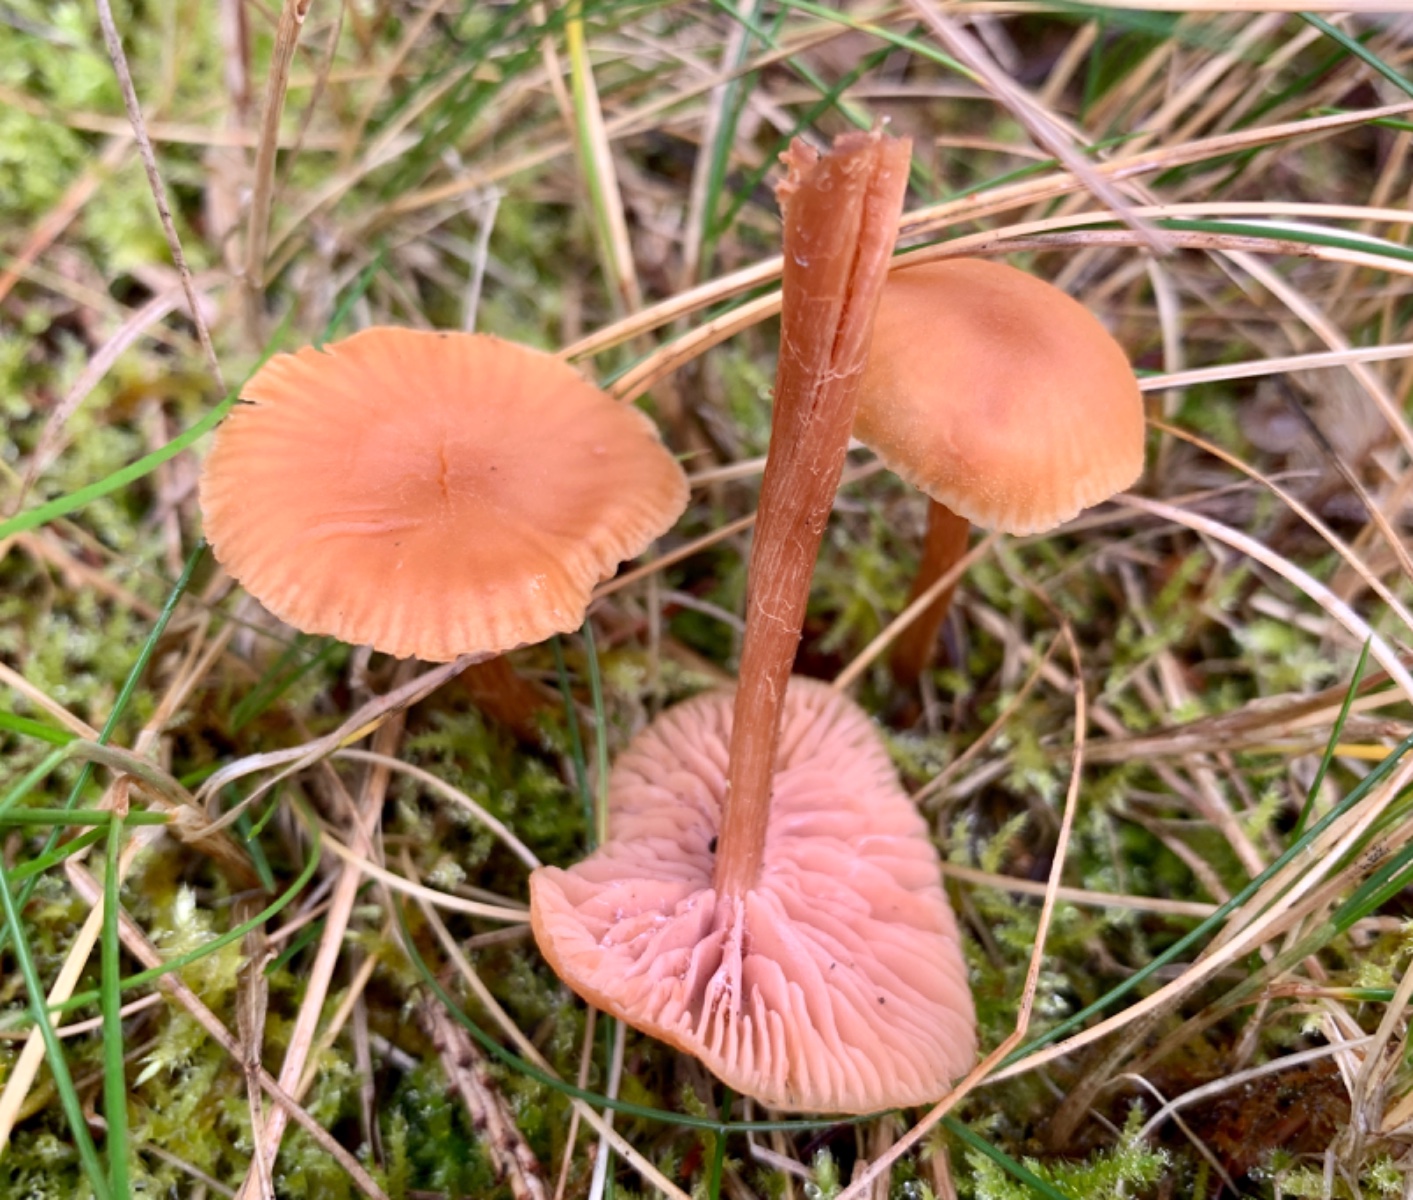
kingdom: Fungi
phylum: Basidiomycota
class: Agaricomycetes
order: Agaricales
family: Hydnangiaceae
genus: Laccaria
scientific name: Laccaria laccata
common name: rød ametysthat
